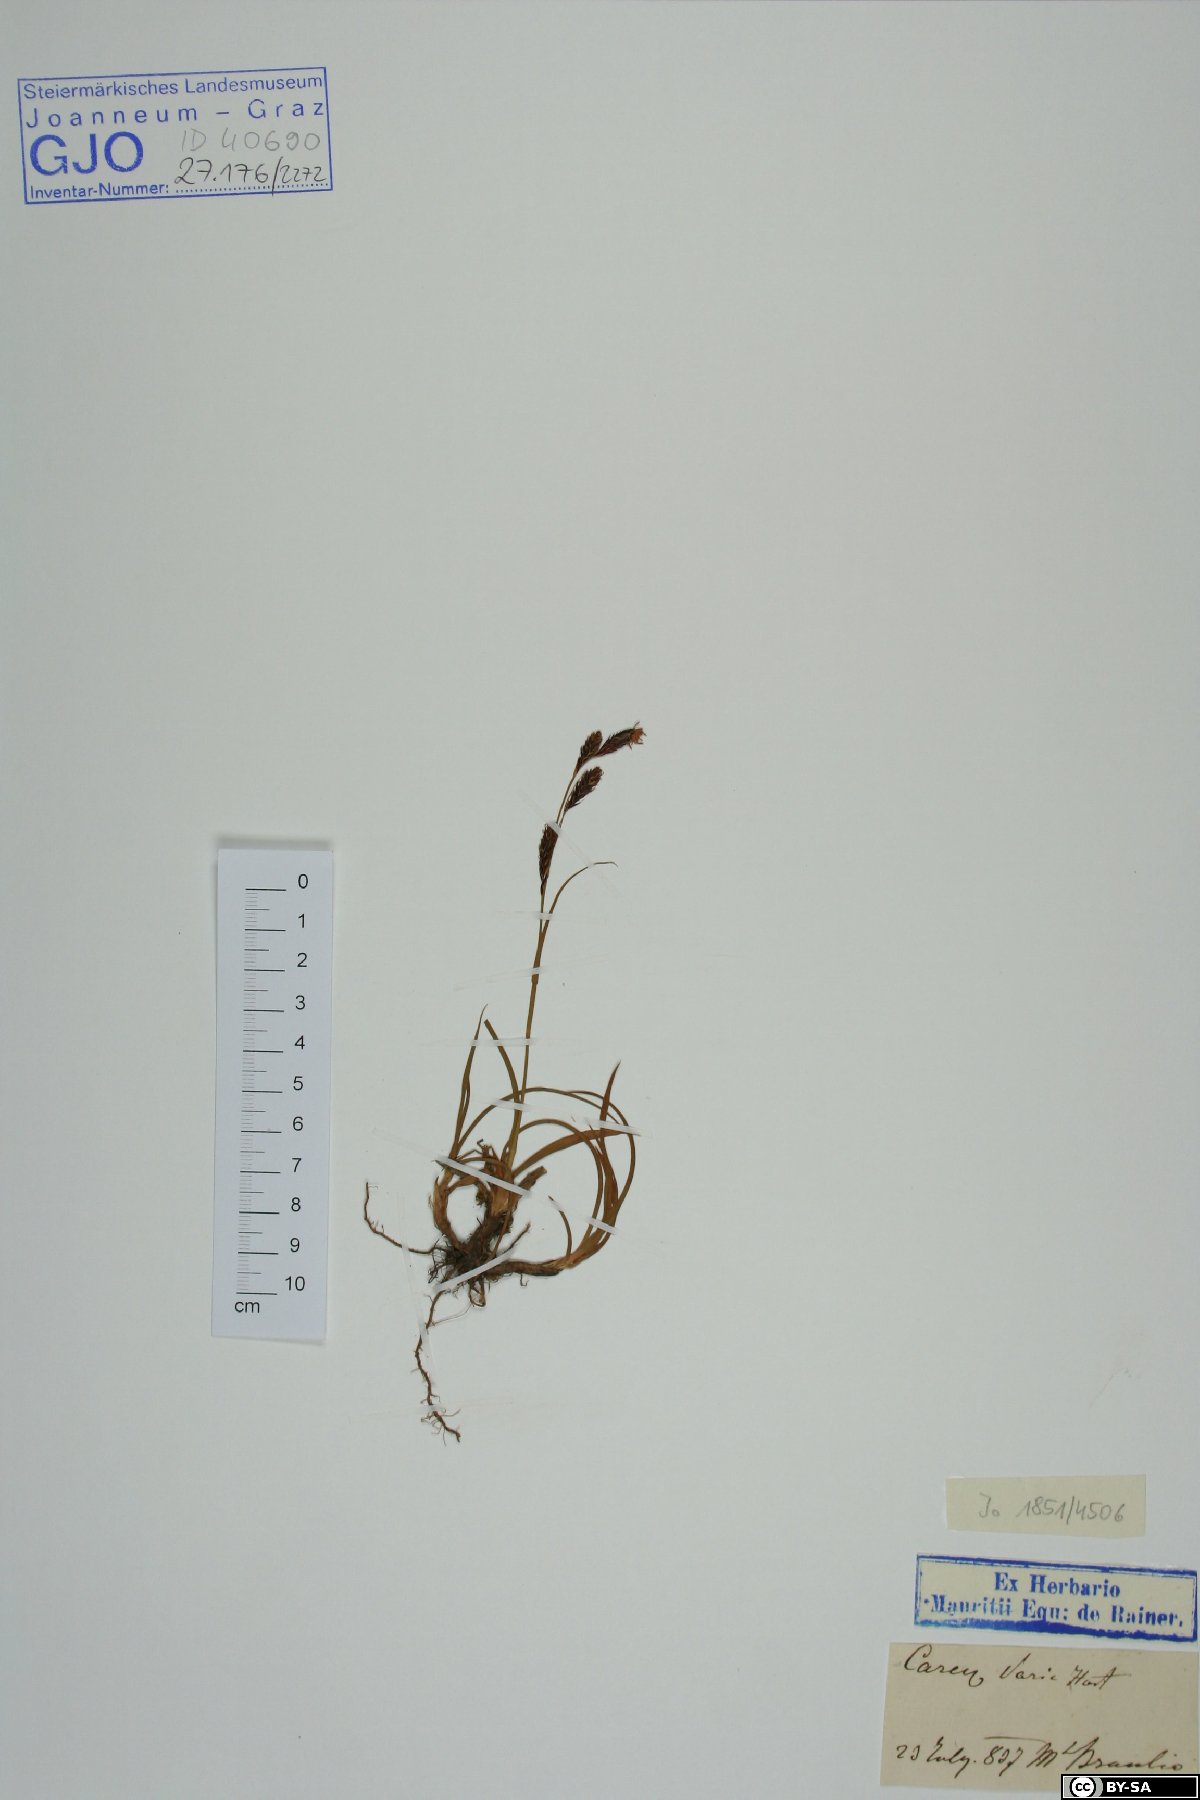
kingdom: Plantae
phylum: Tracheophyta
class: Liliopsida
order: Poales
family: Cyperaceae
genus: Carex
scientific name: Carex sempervirens
